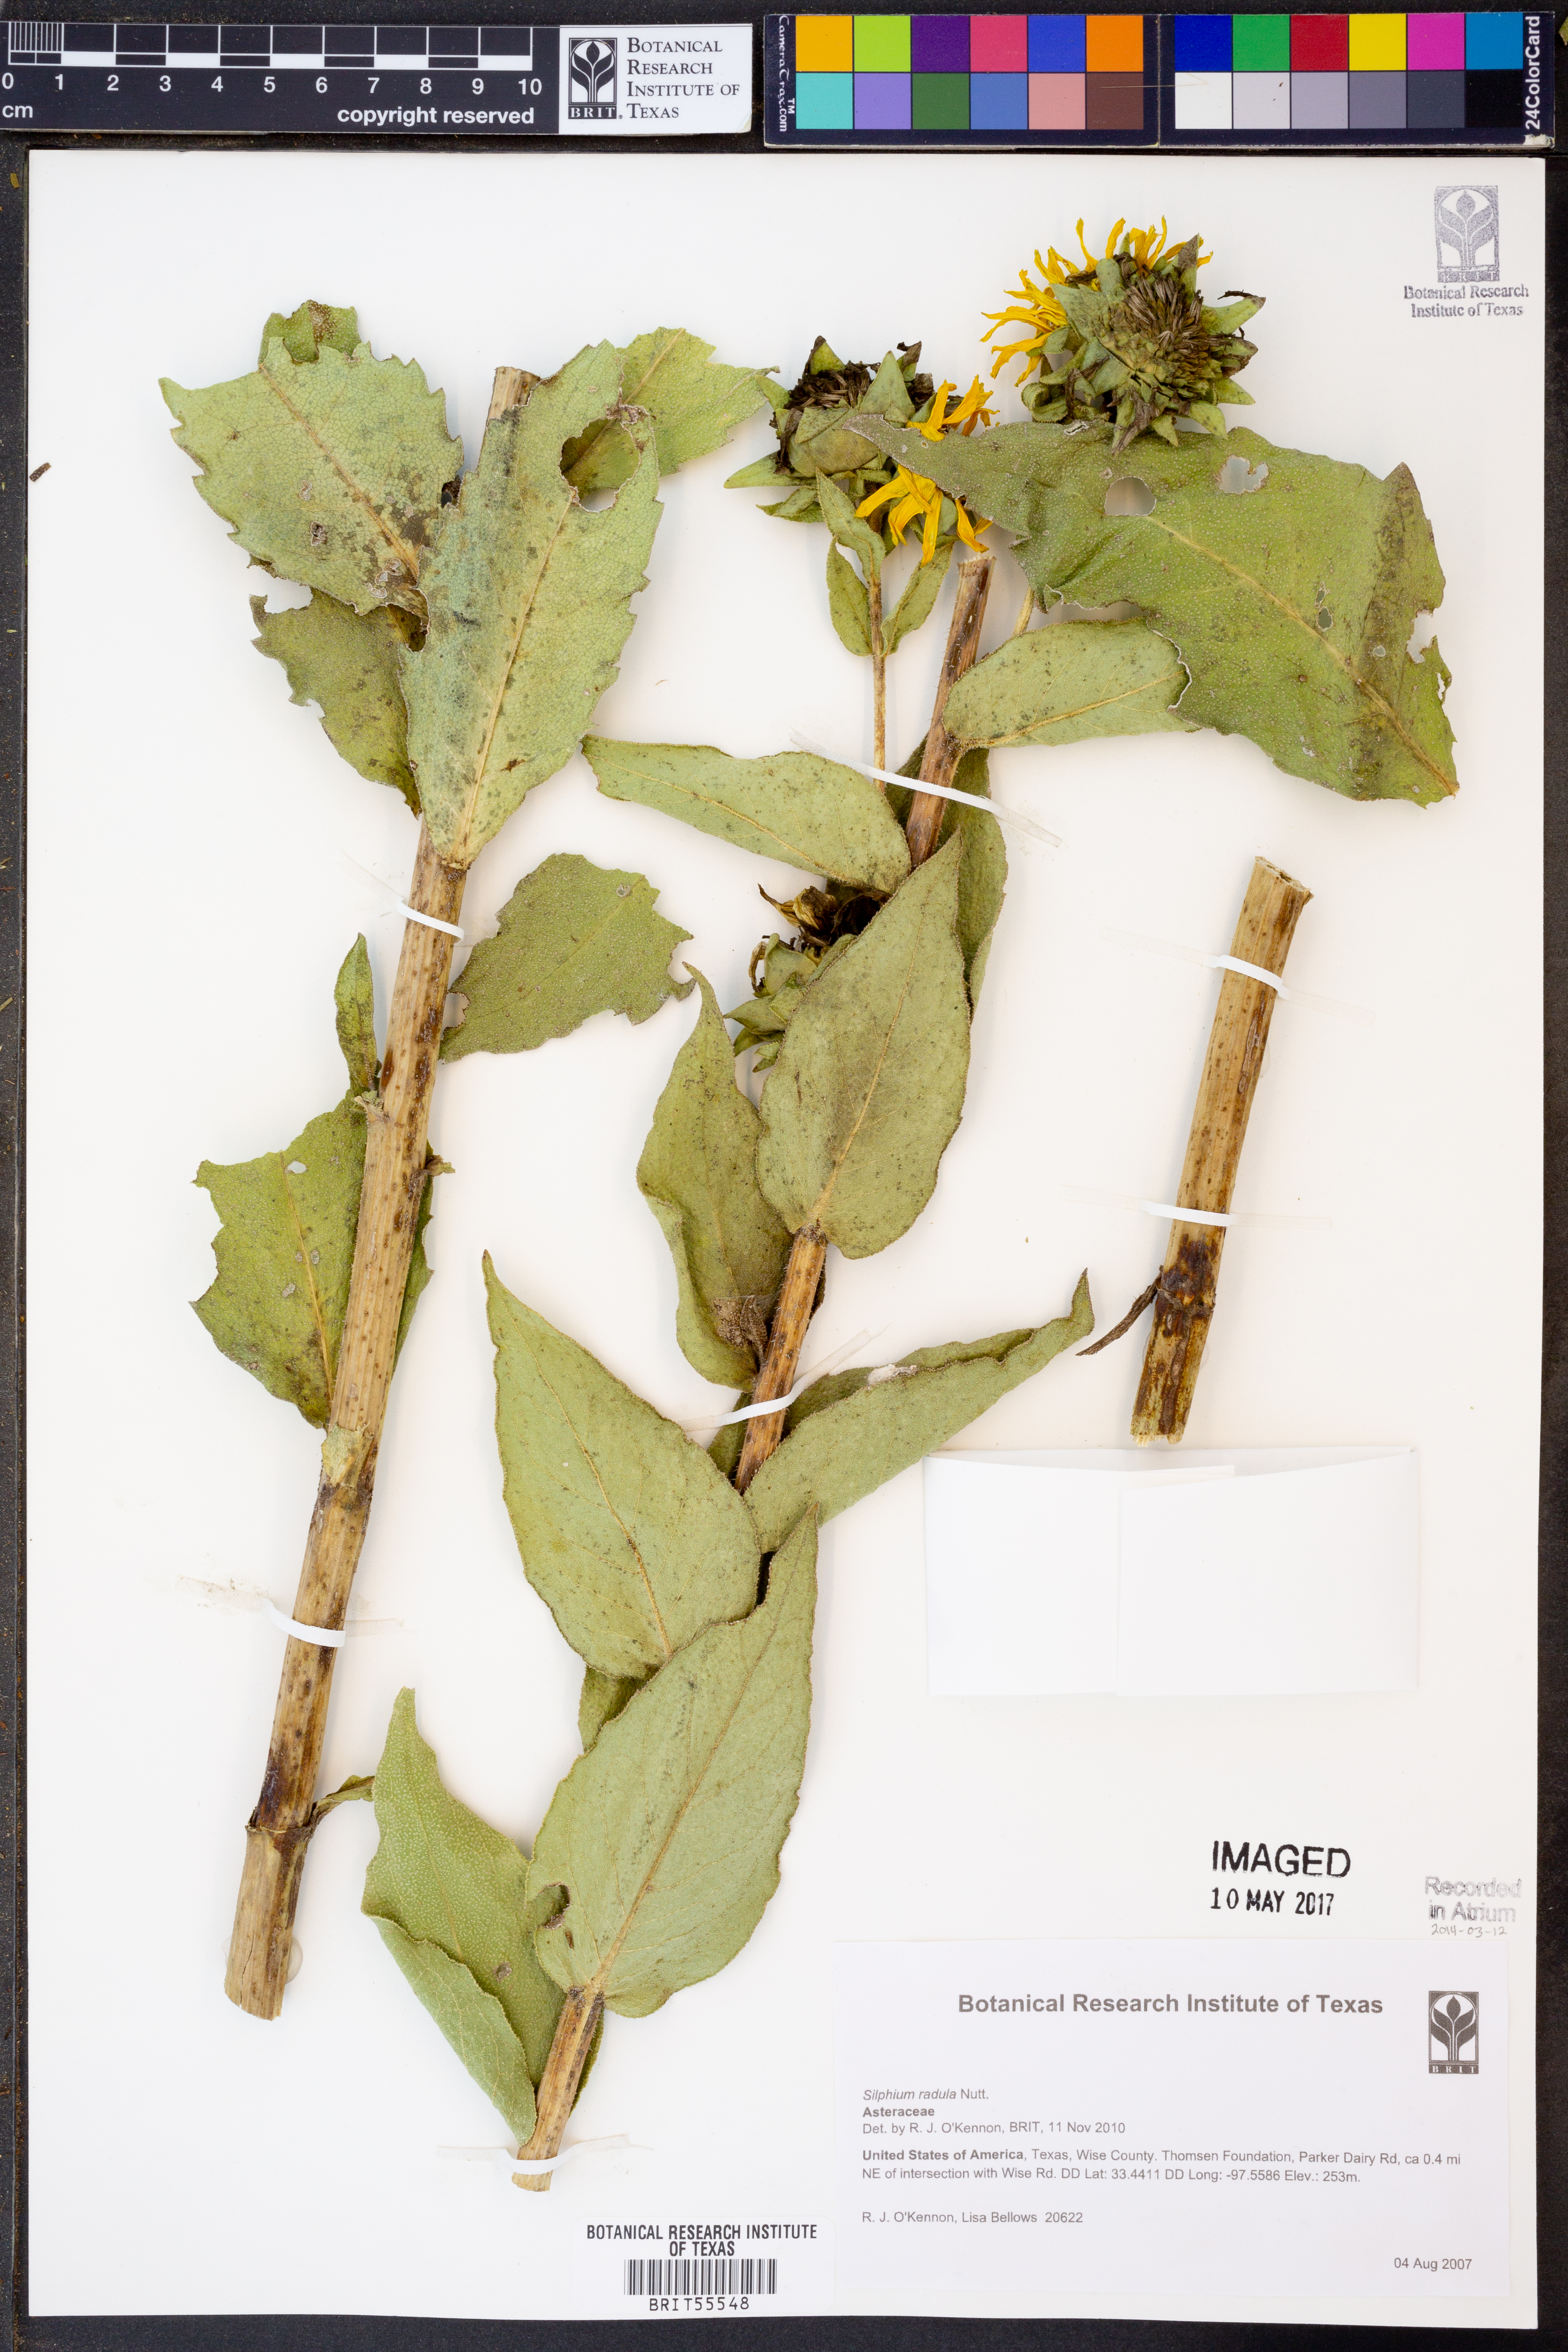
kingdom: Plantae
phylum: Tracheophyta
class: Magnoliopsida
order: Asterales
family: Asteraceae
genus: Silphium
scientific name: Silphium radula
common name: Roughleaf rosinweed
